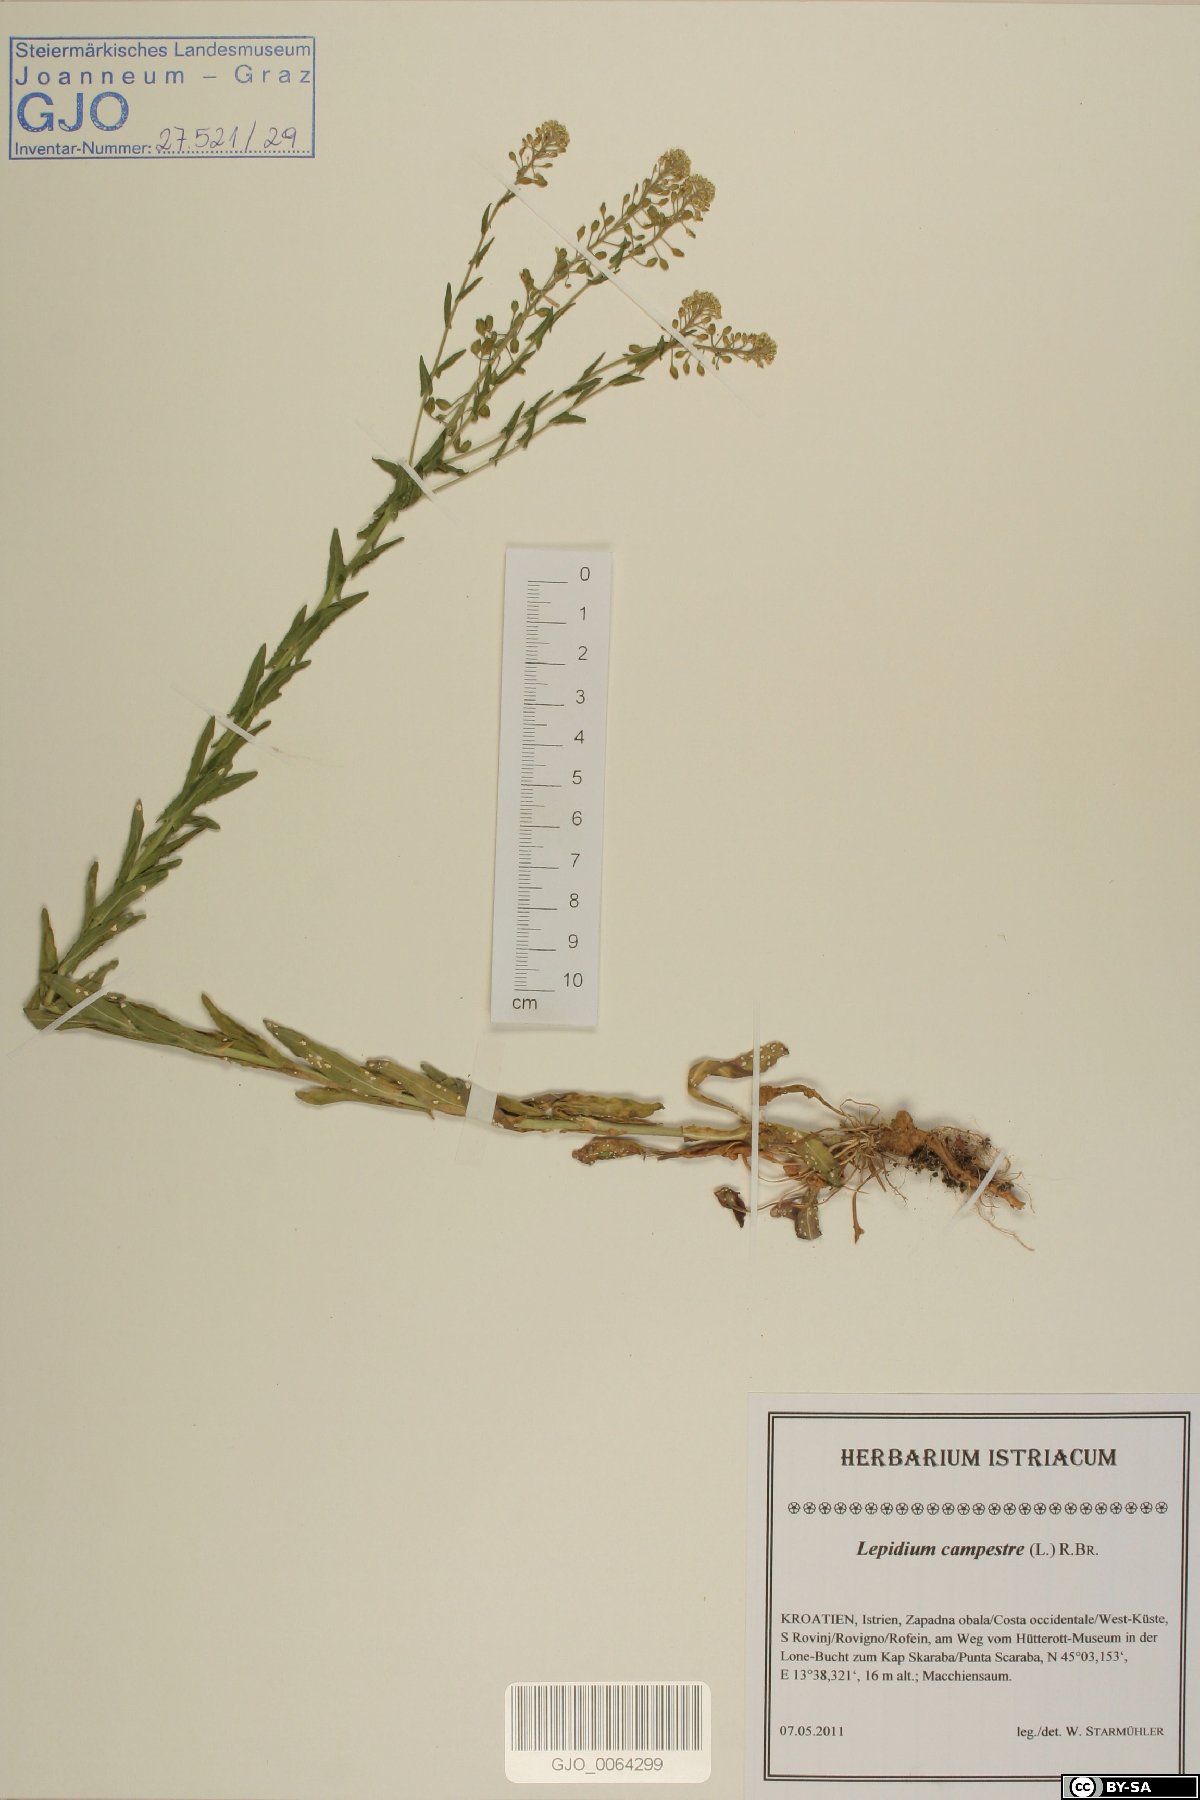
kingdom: Plantae
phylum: Tracheophyta
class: Magnoliopsida
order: Brassicales
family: Brassicaceae
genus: Lepidium
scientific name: Lepidium campestre
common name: Field pepperwort
